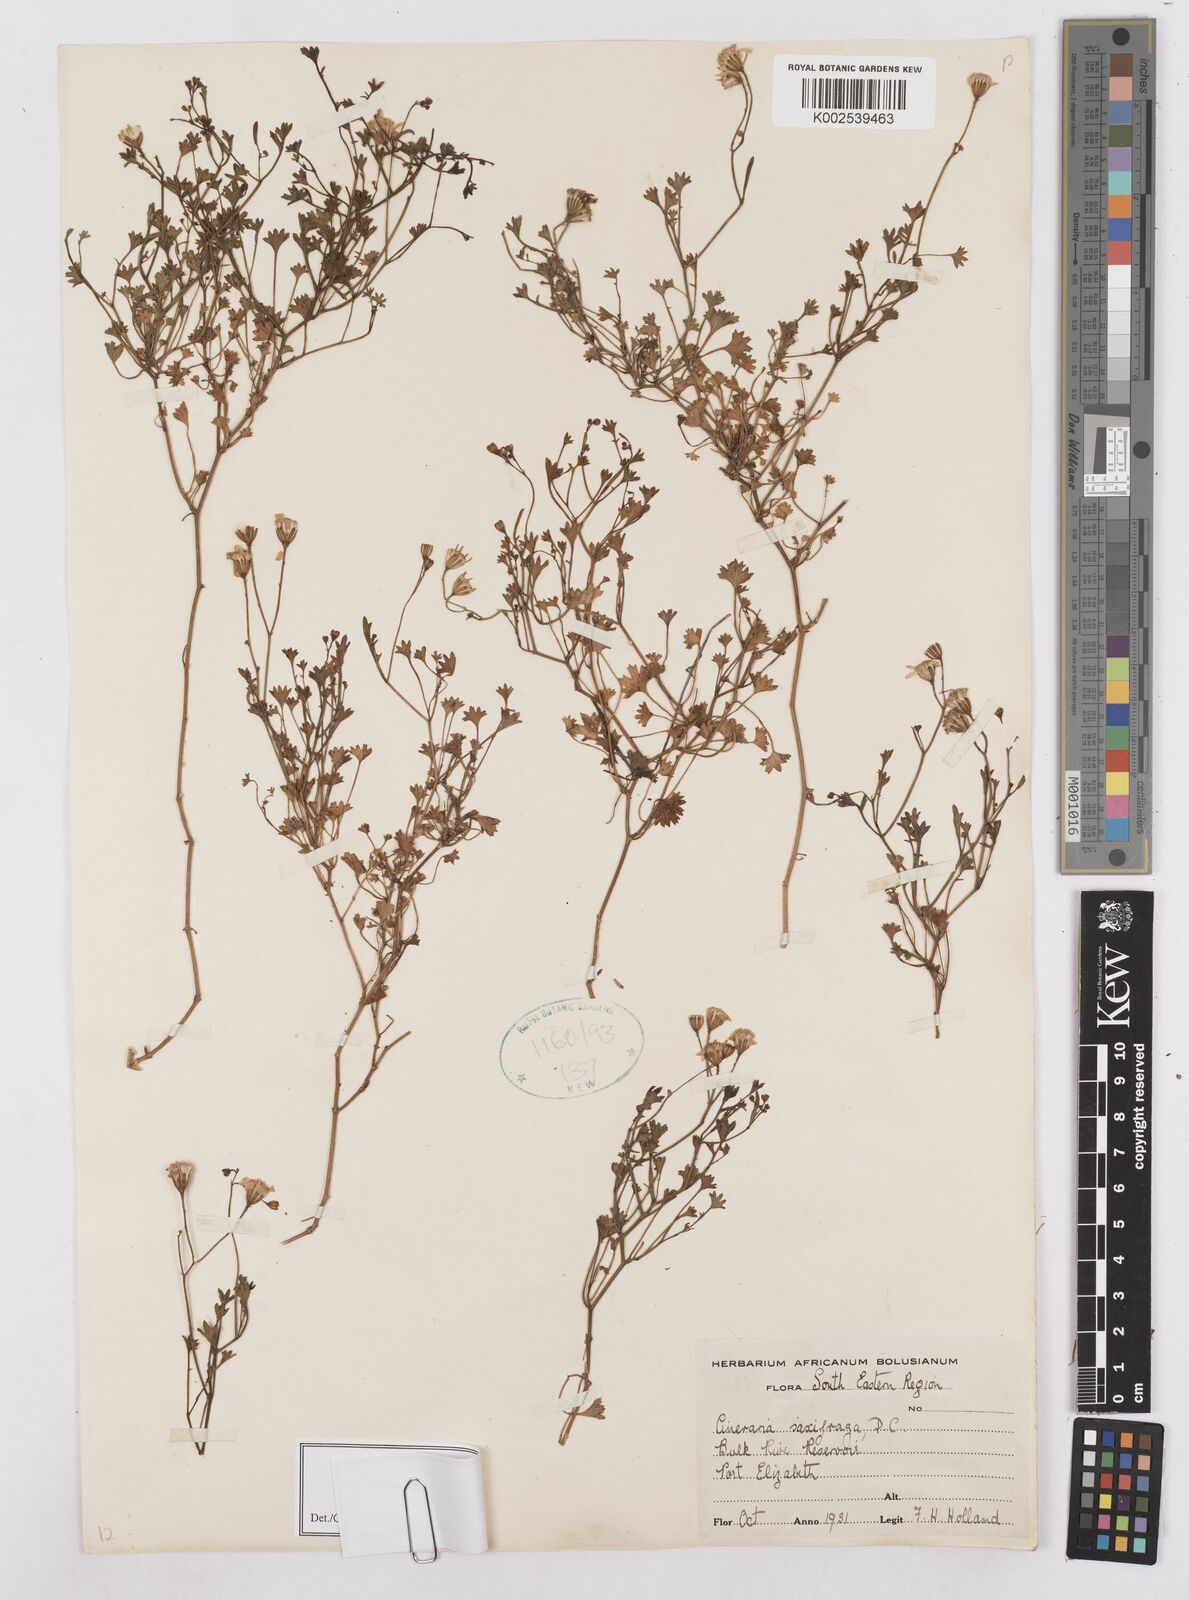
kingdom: Plantae
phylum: Tracheophyta
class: Magnoliopsida
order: Asterales
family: Asteraceae
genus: Cineraria
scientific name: Cineraria saxifraga
